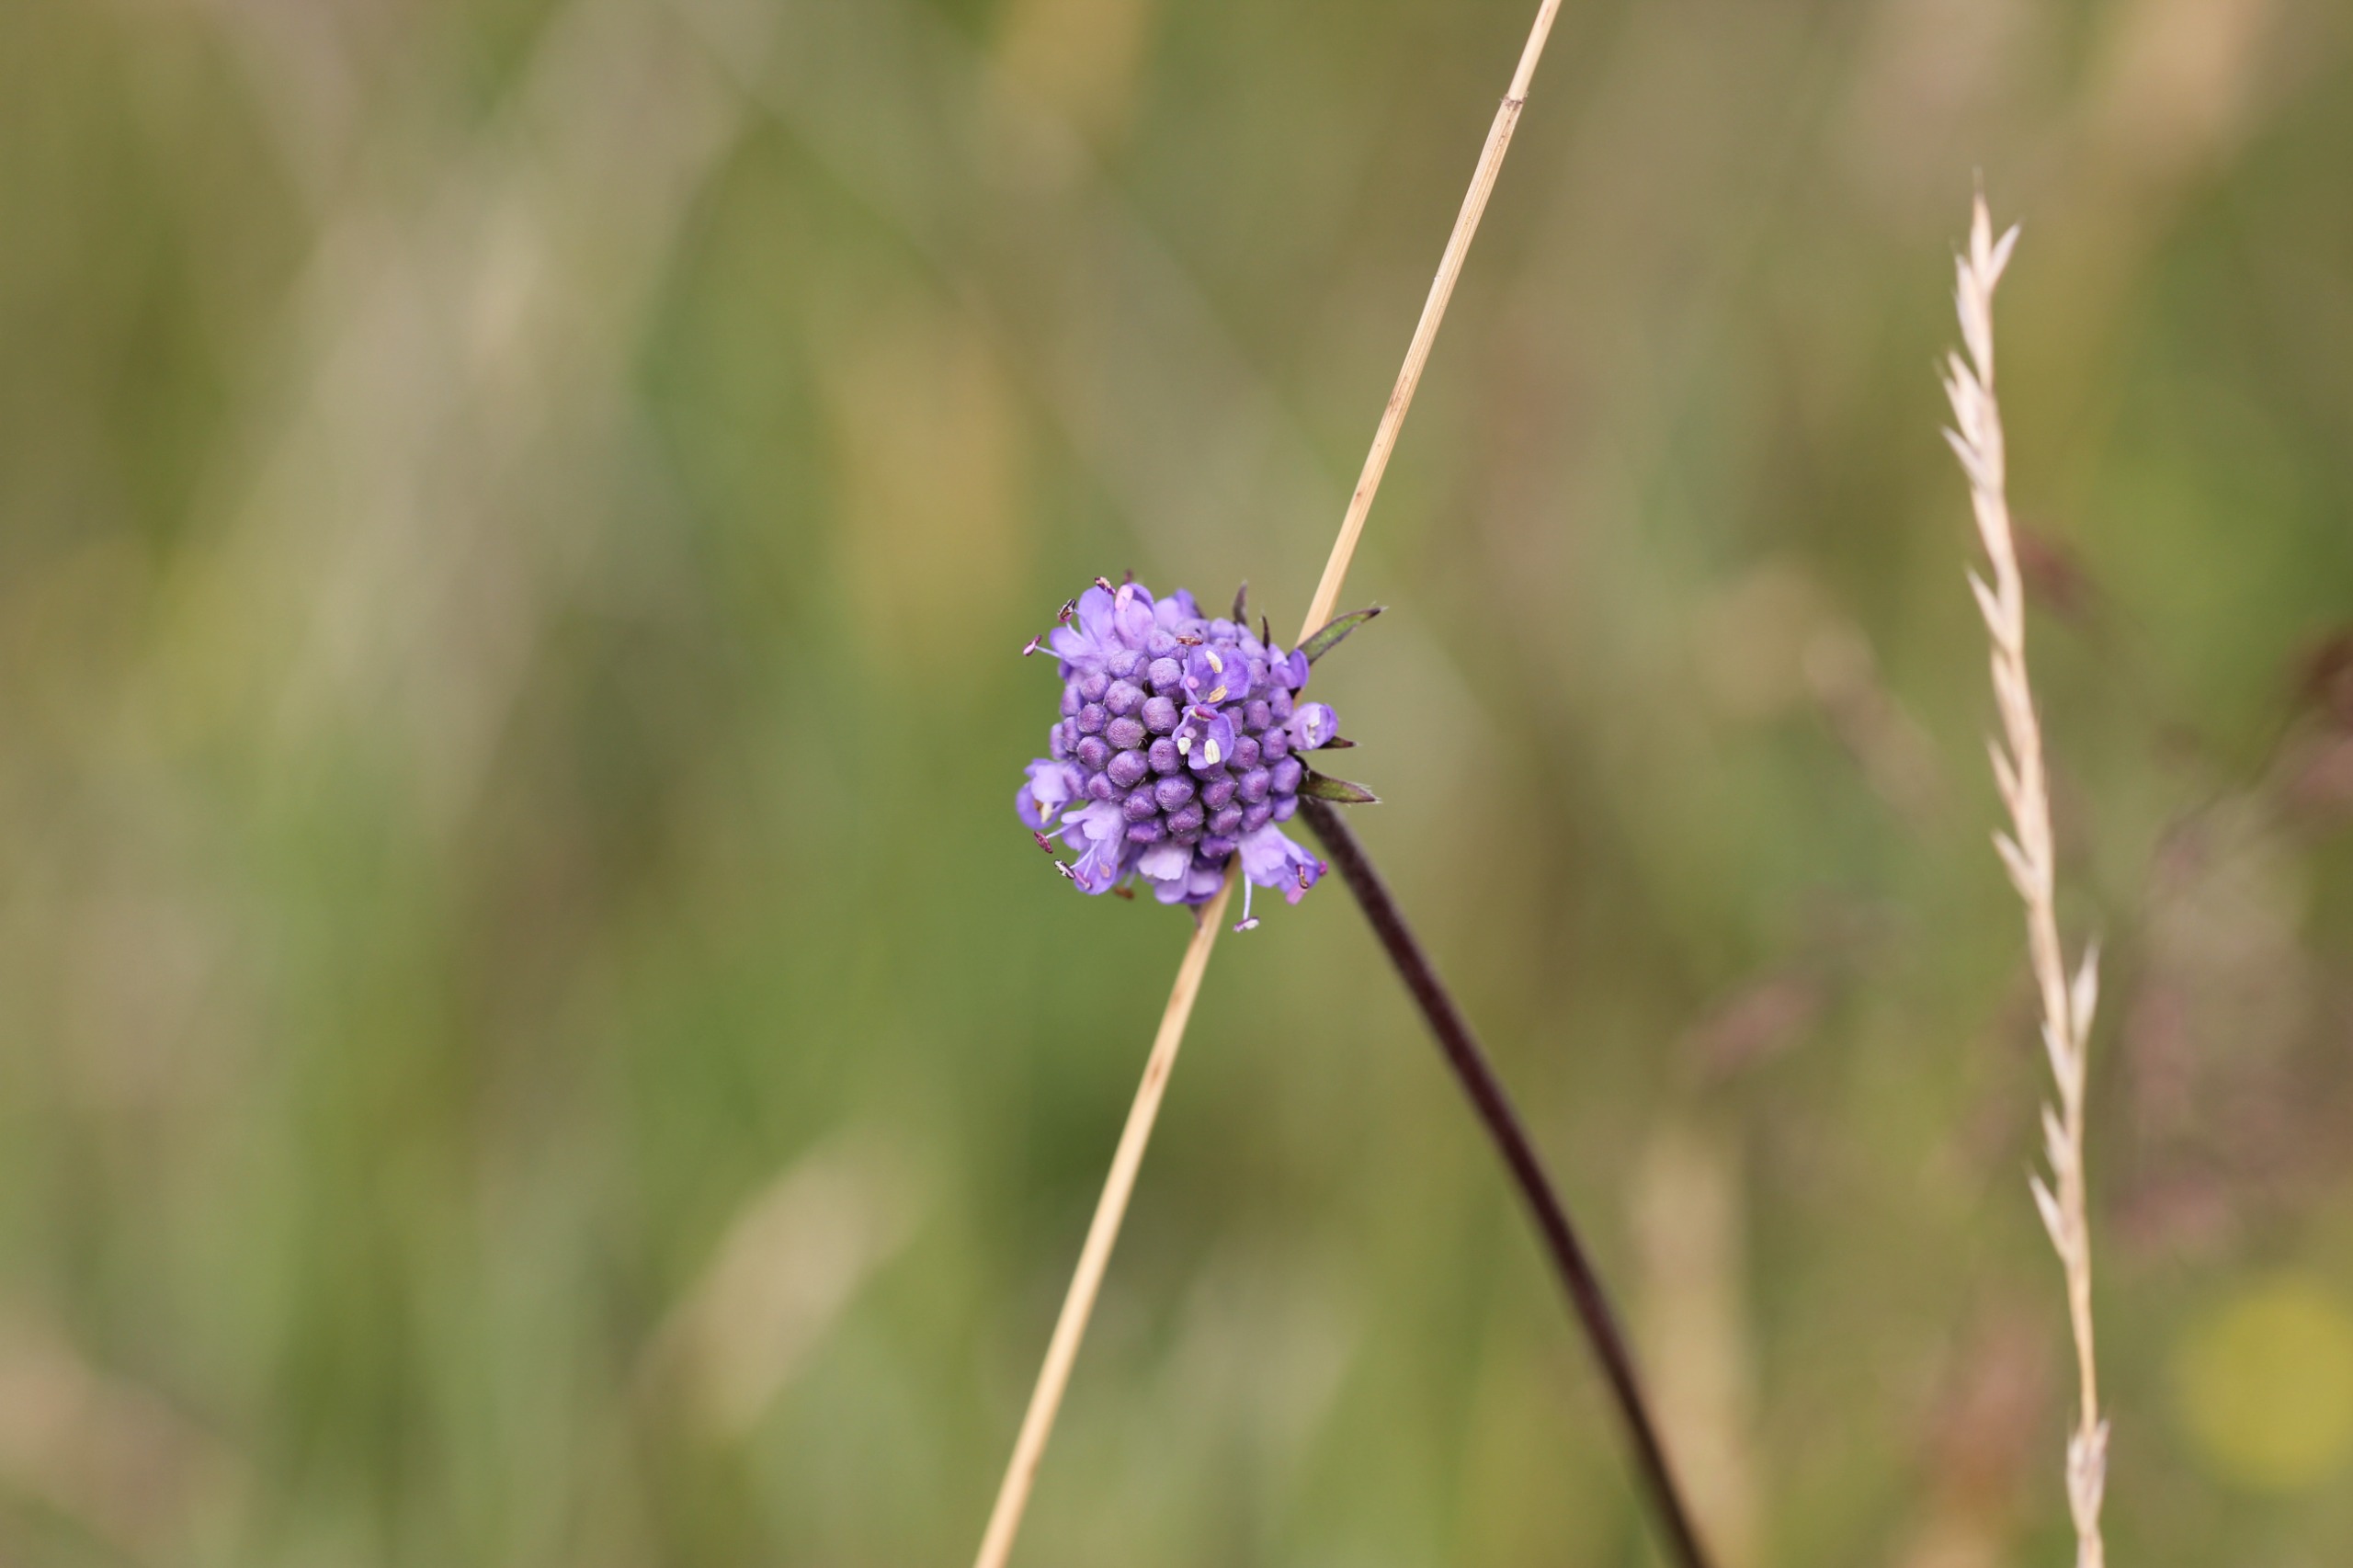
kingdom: Plantae
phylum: Tracheophyta
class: Magnoliopsida
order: Dipsacales
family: Caprifoliaceae
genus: Succisa
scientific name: Succisa pratensis
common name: Djævelsbid
